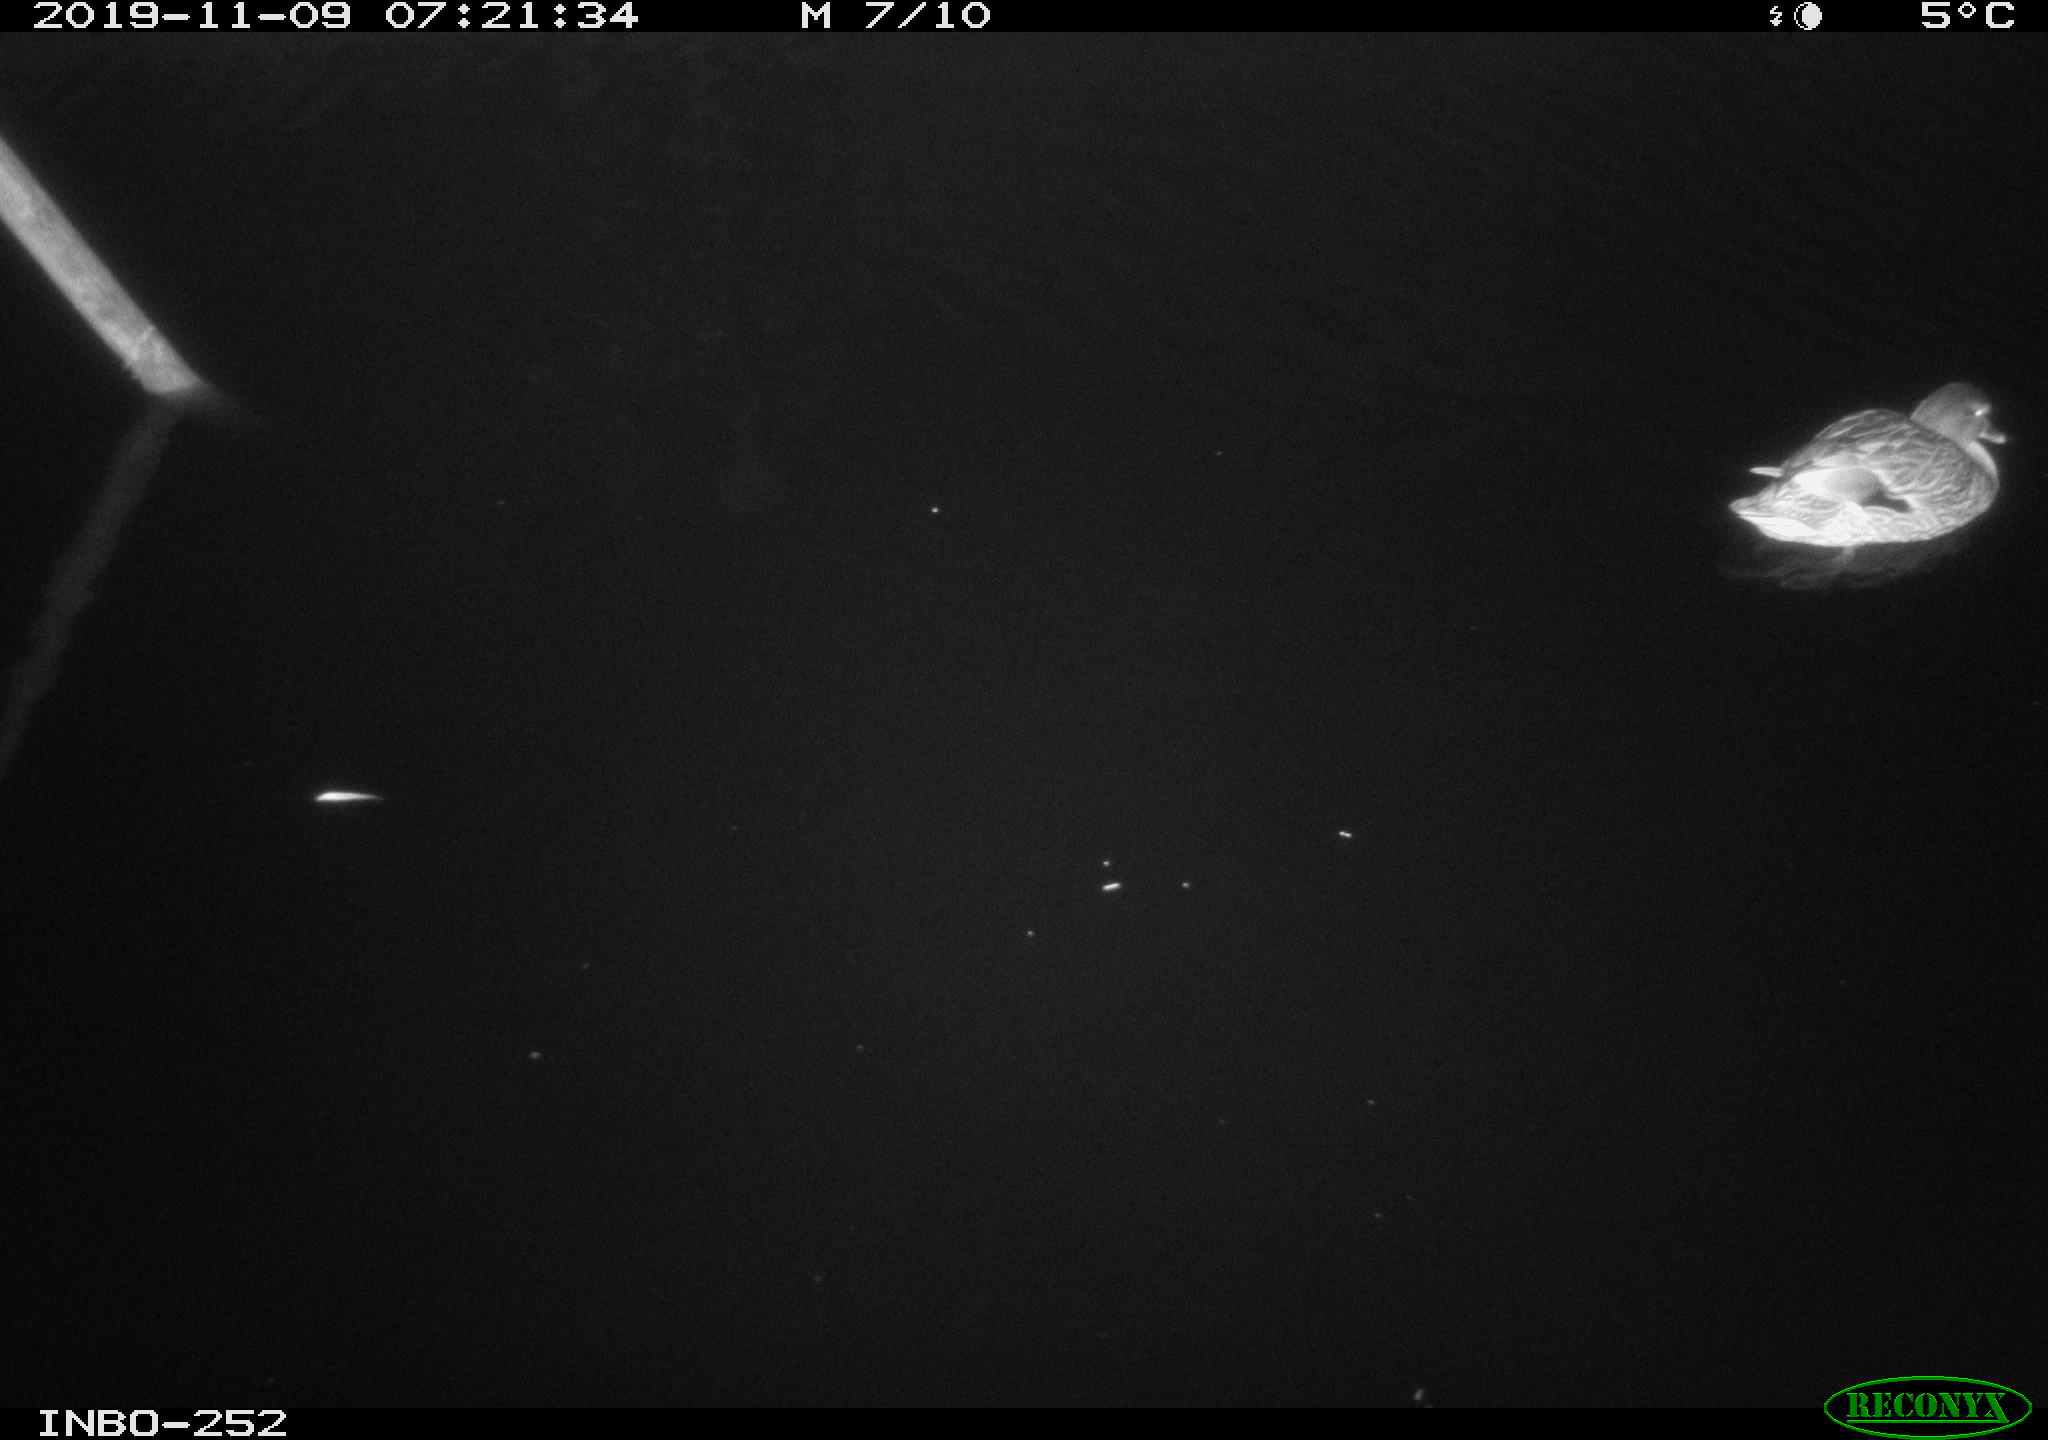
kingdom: Animalia
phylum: Chordata
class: Aves
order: Anseriformes
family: Anatidae
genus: Anas
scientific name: Anas platyrhynchos
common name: Mallard
